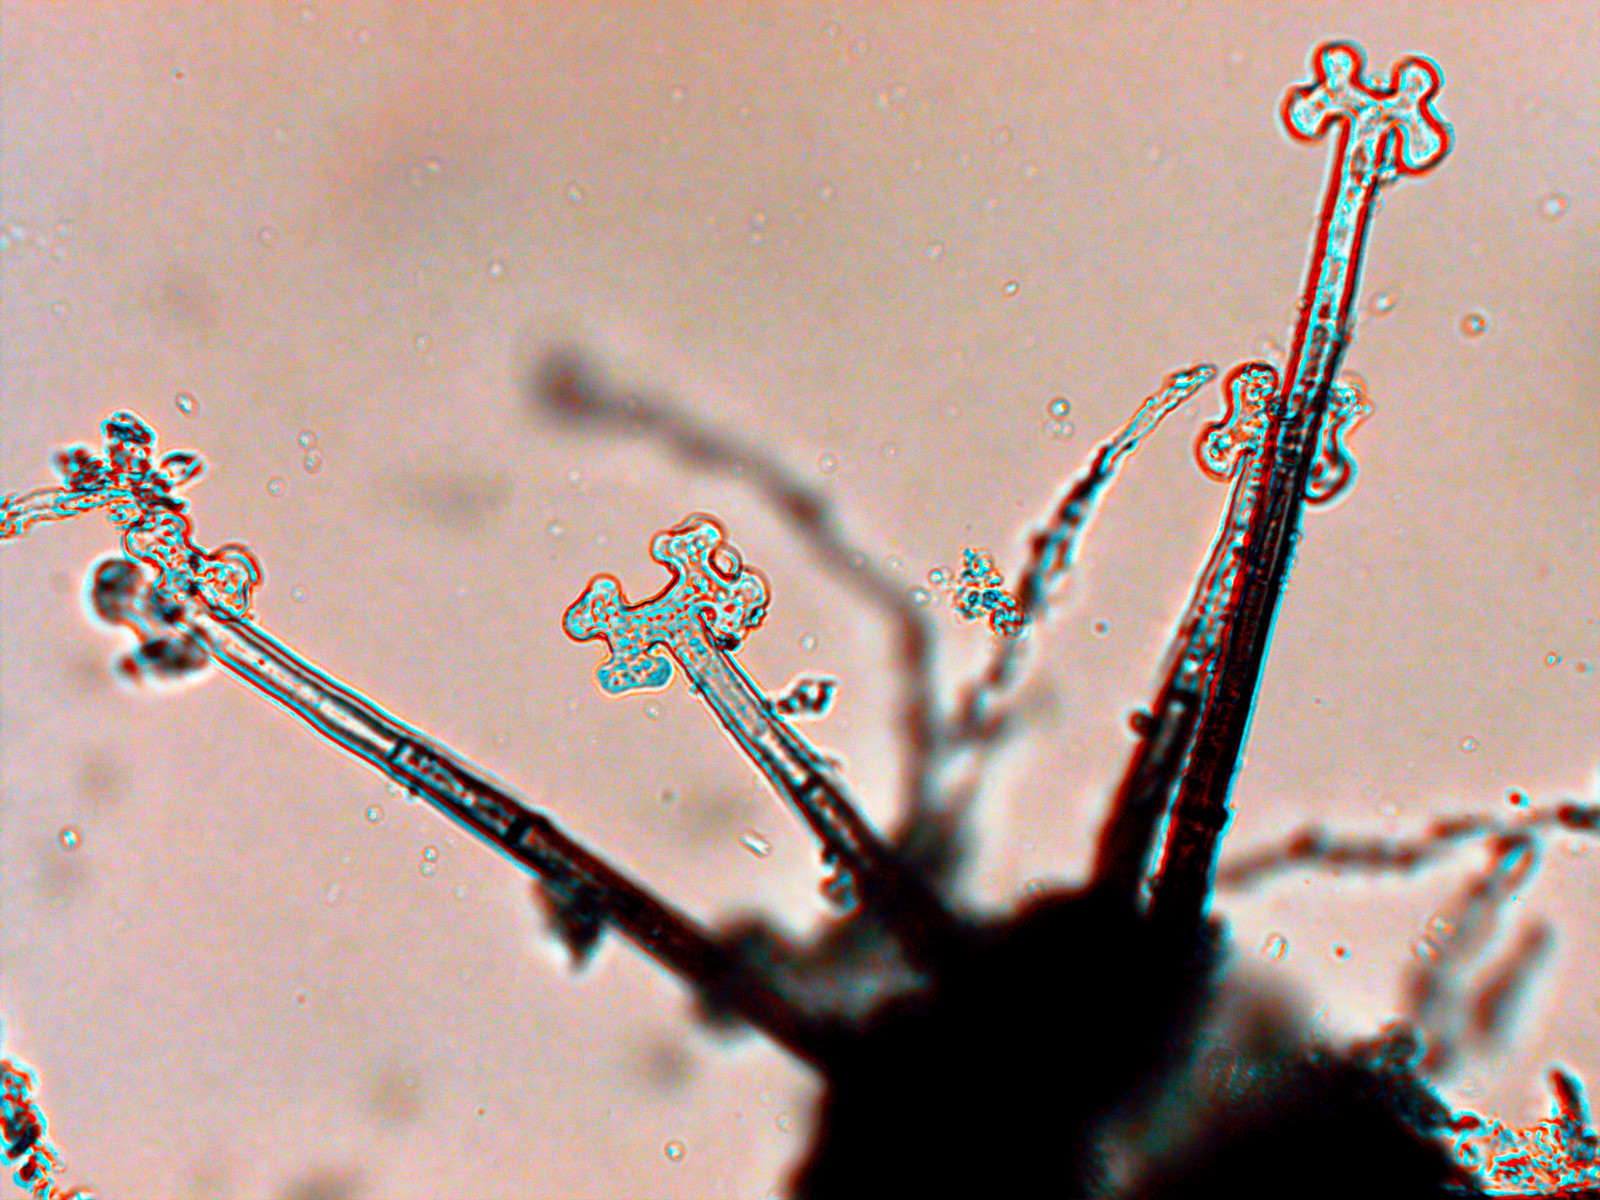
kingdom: Fungi
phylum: Ascomycota
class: Leotiomycetes
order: Helotiales
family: Erysiphaceae
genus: Podosphaera
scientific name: Podosphaera amelanchieris
